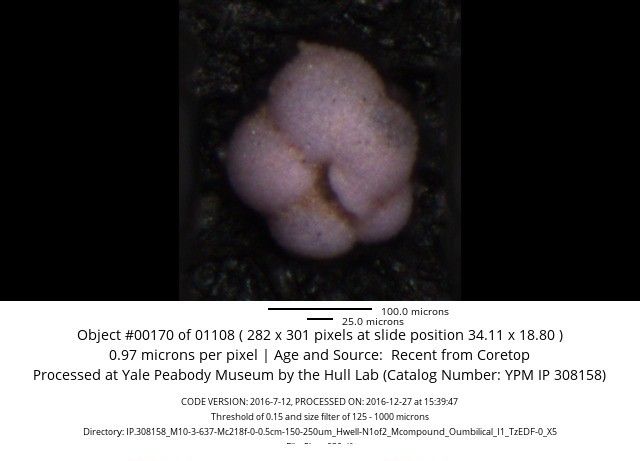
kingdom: Chromista
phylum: Foraminifera
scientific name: Foraminifera
